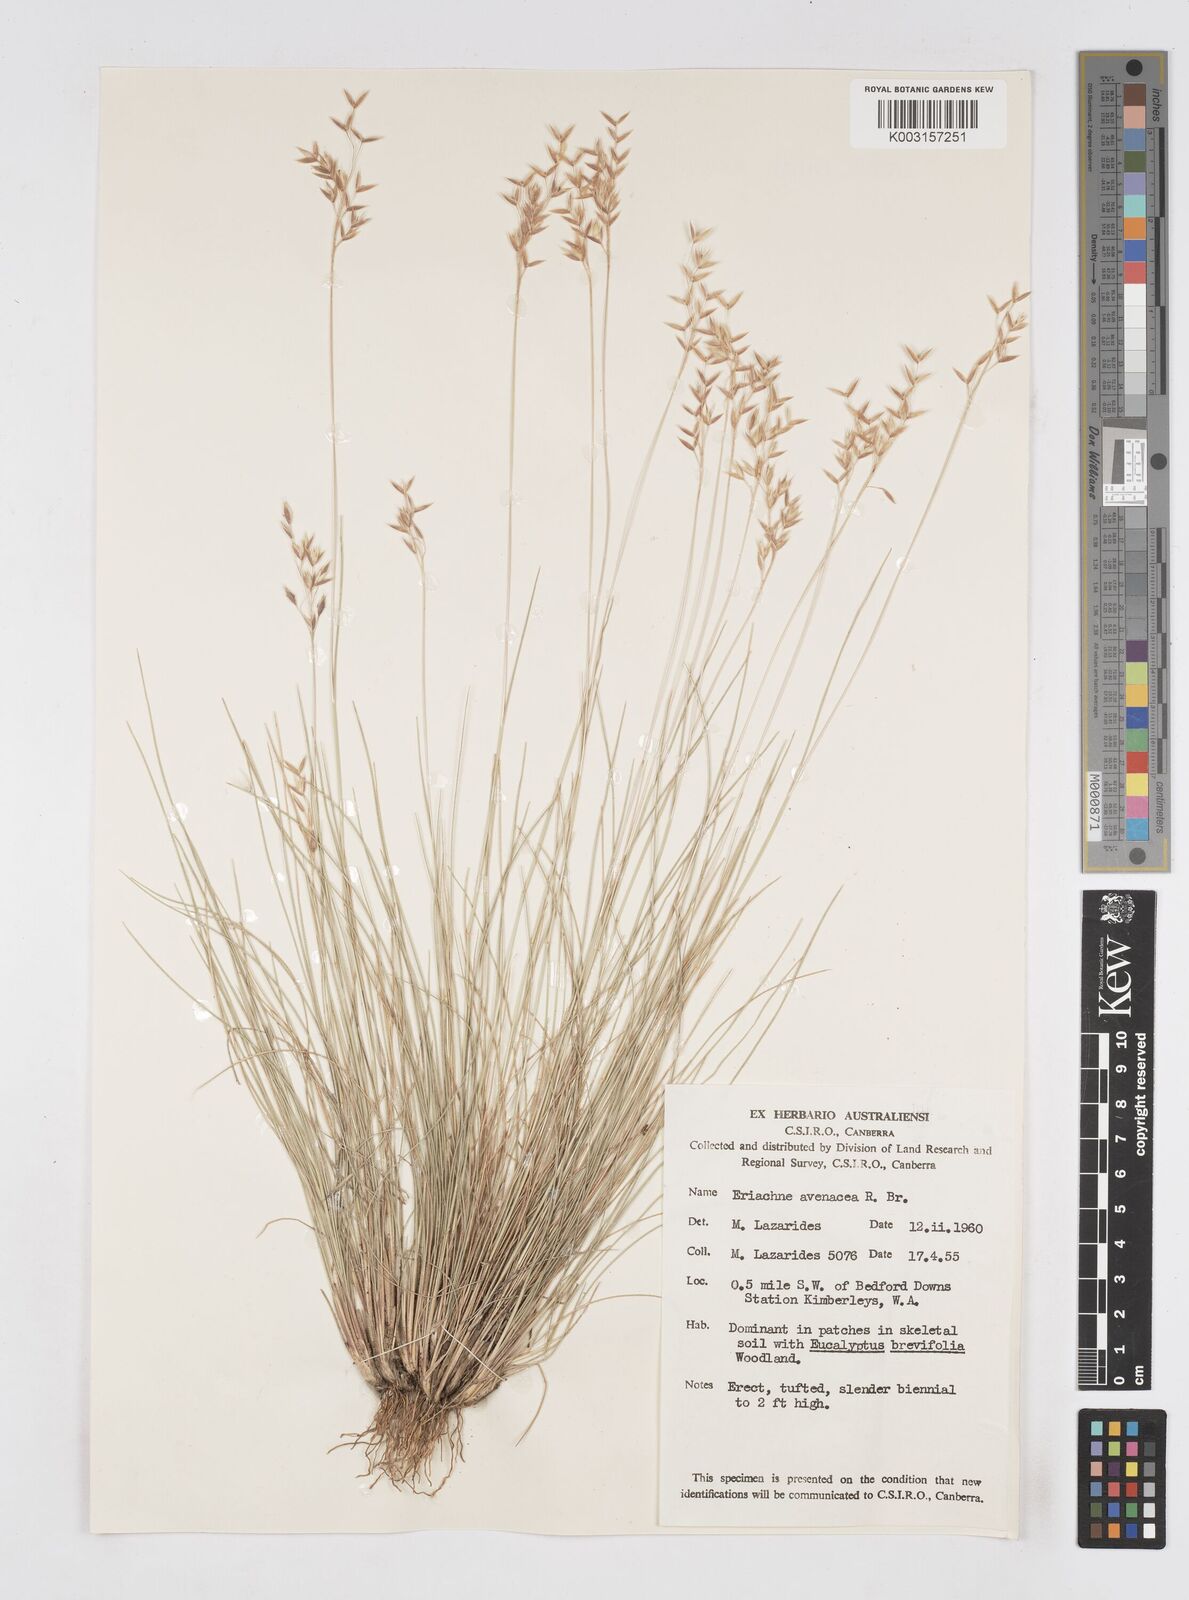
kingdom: Plantae
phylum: Tracheophyta
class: Liliopsida
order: Poales
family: Poaceae
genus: Eriachne
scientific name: Eriachne avenacea
